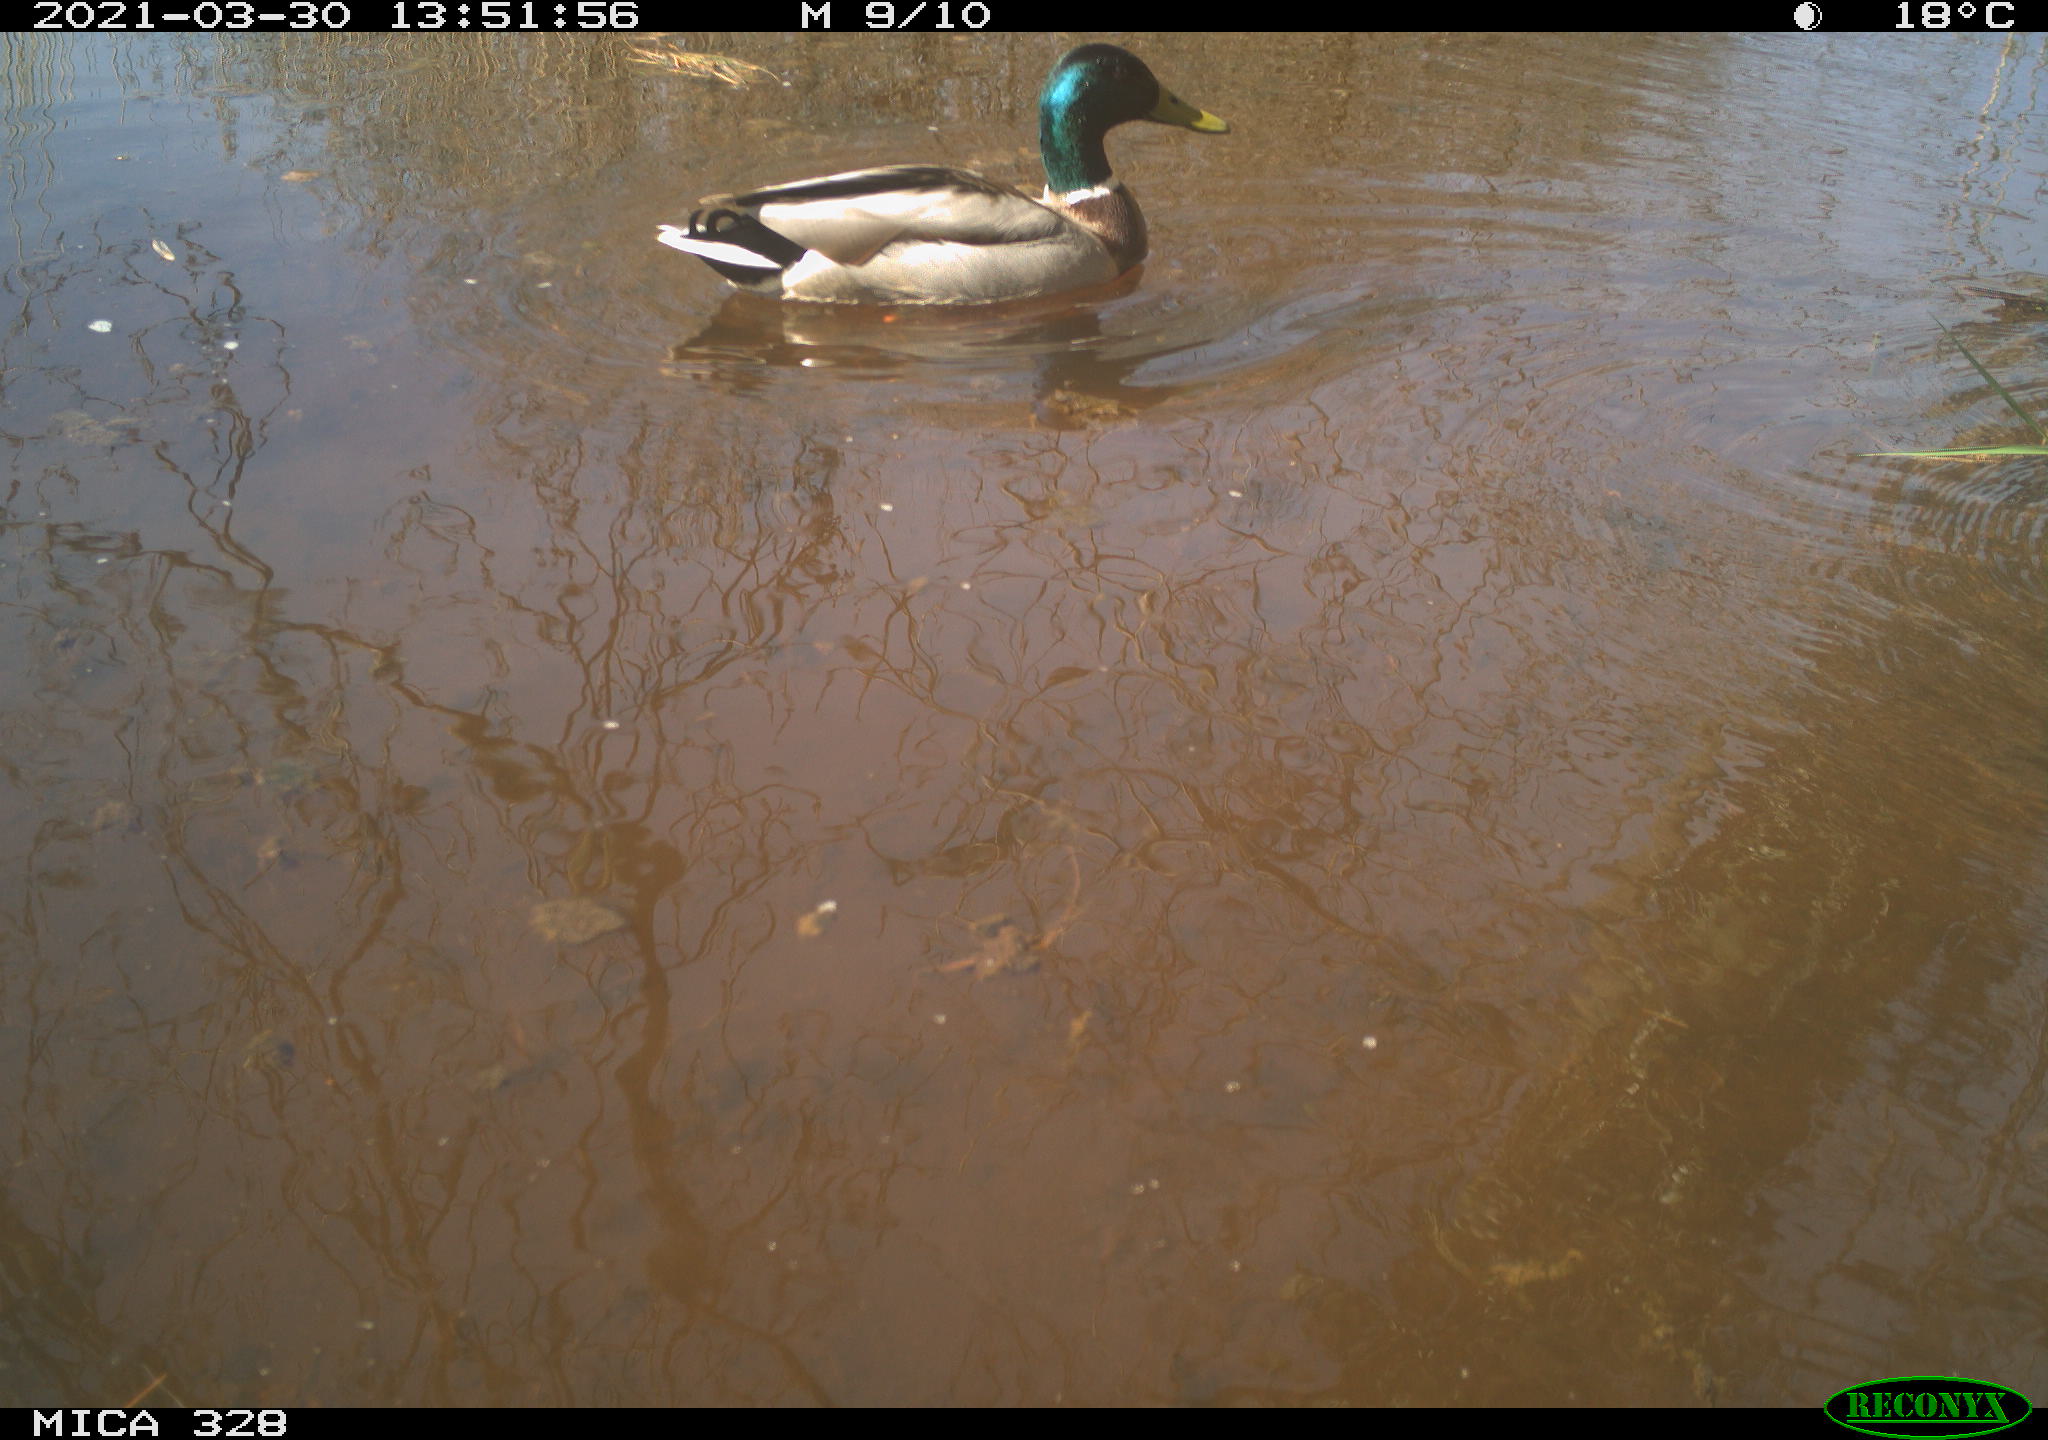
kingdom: Animalia
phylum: Chordata
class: Aves
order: Anseriformes
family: Anatidae
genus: Anas
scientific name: Anas platyrhynchos
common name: Mallard
